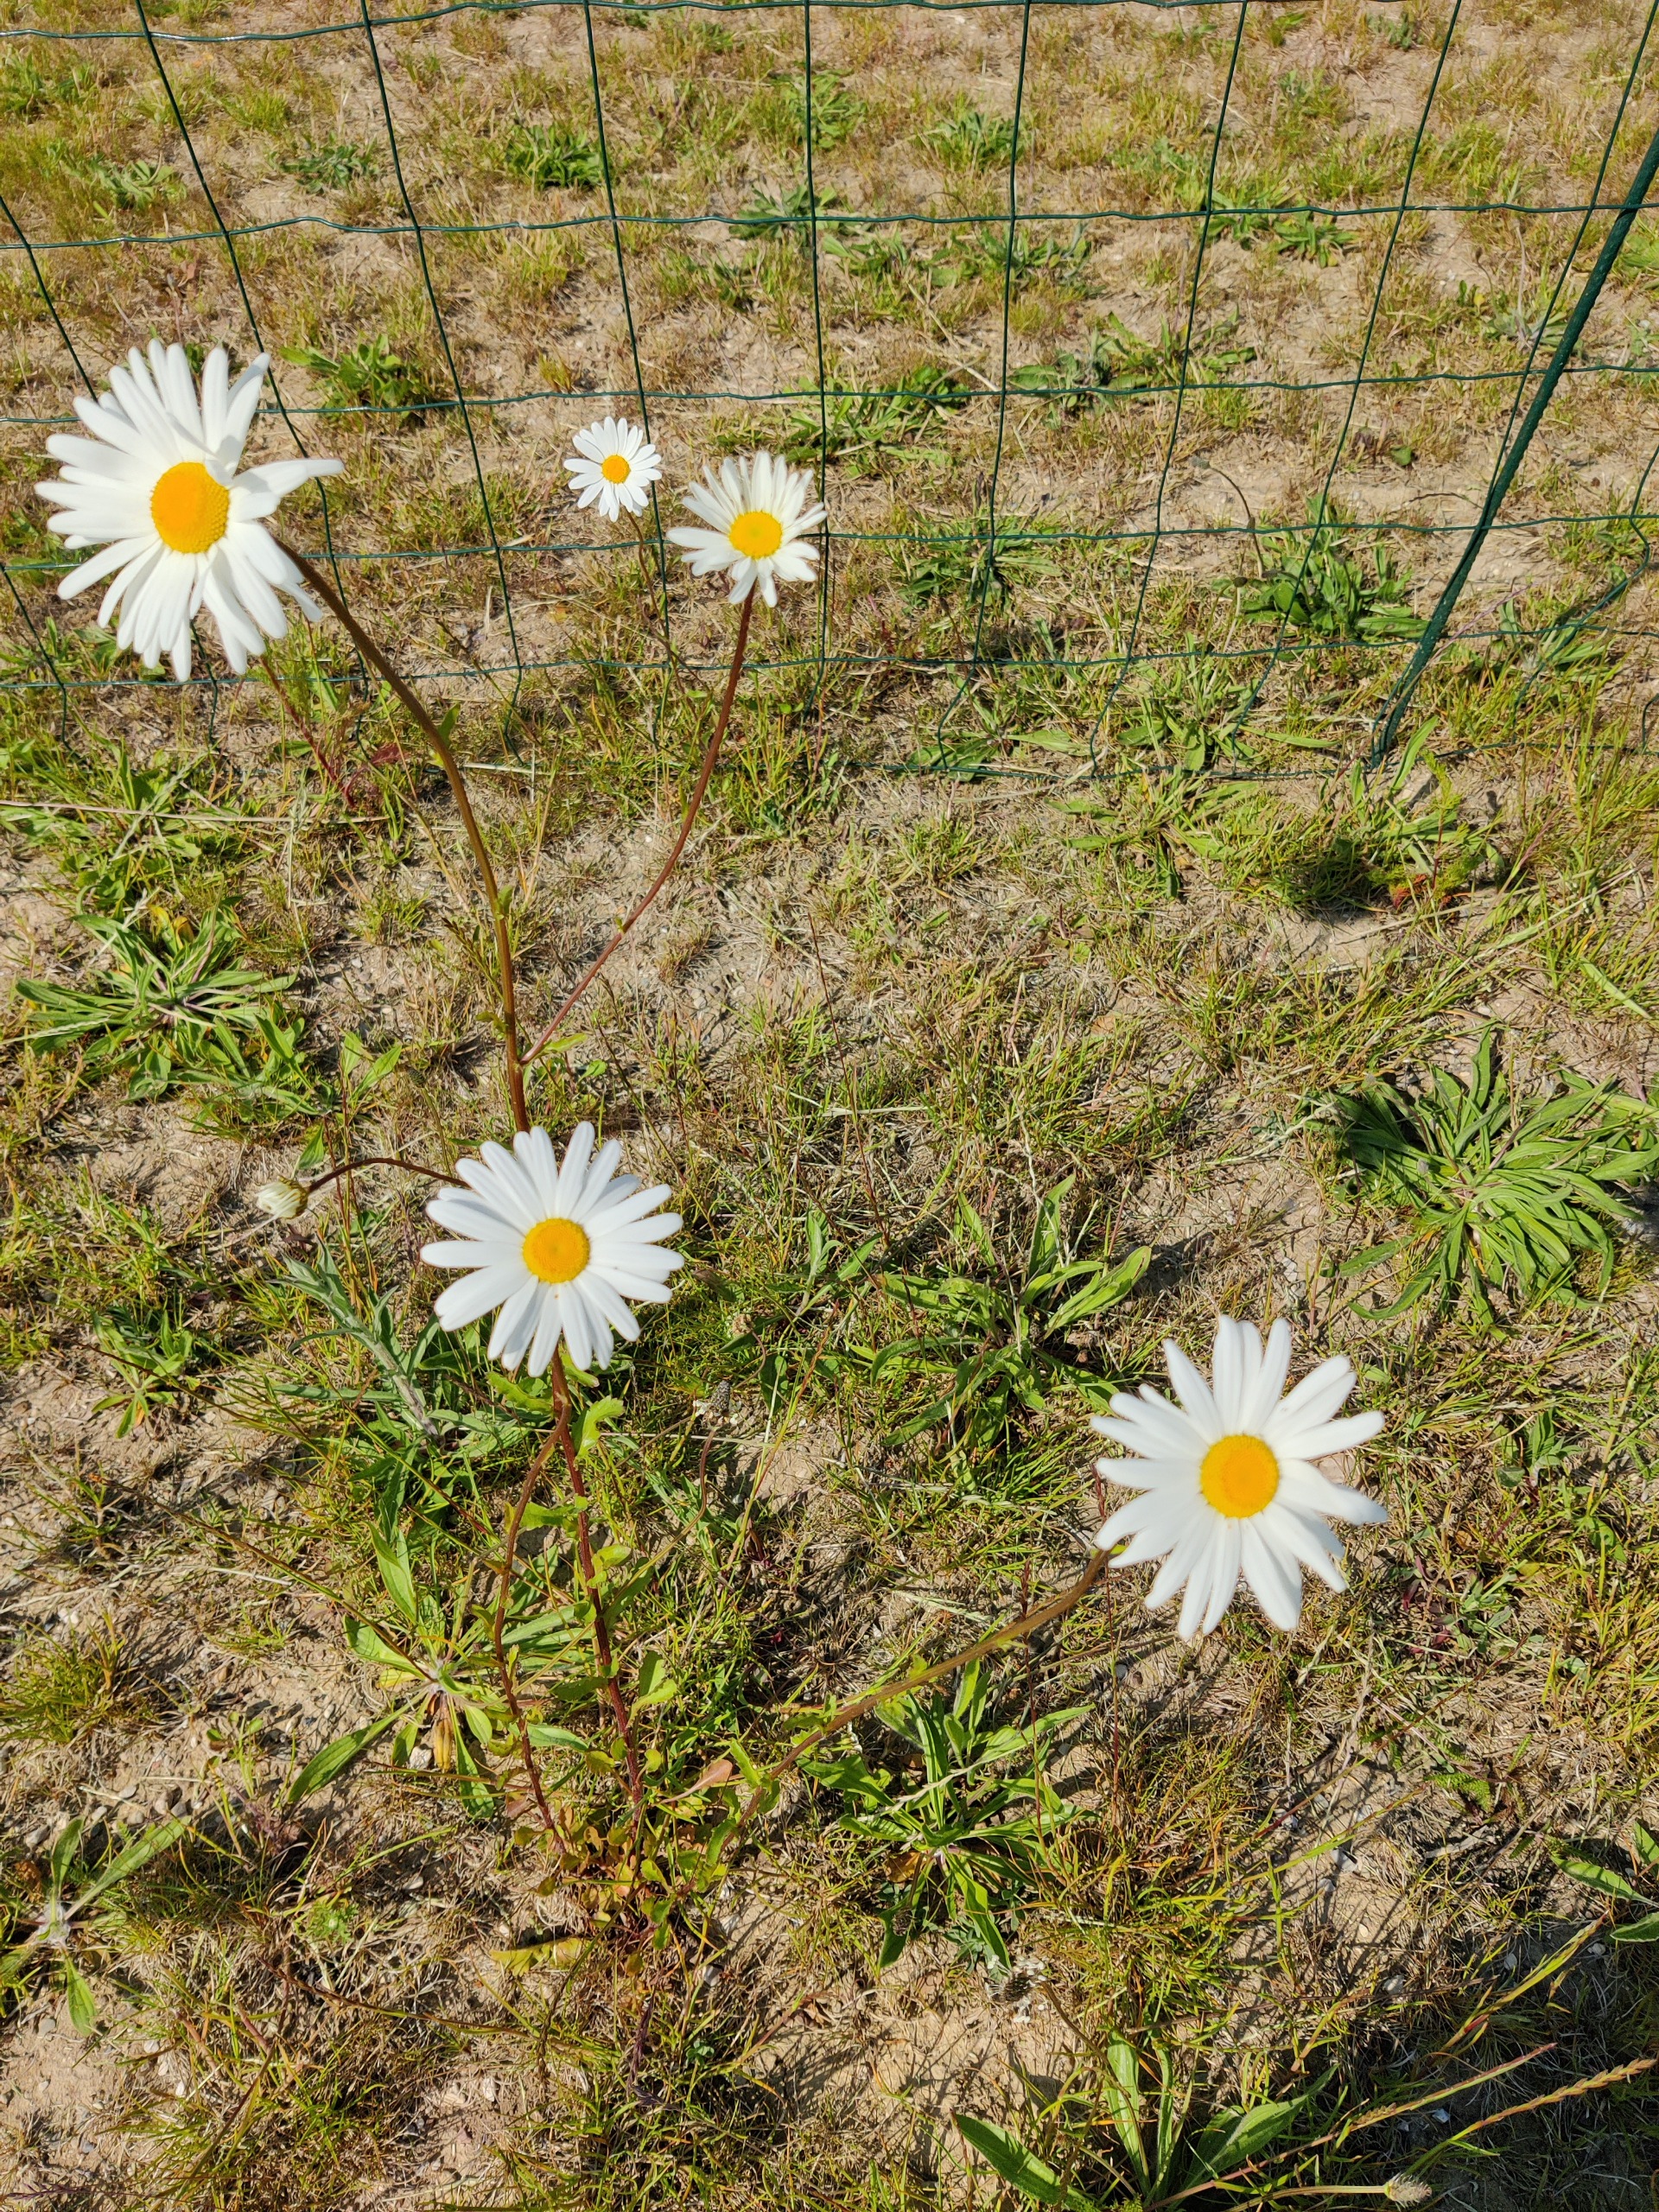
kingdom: Plantae
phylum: Tracheophyta
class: Magnoliopsida
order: Asterales
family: Asteraceae
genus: Leucanthemum
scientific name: Leucanthemum vulgare
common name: Hvid okseøje
